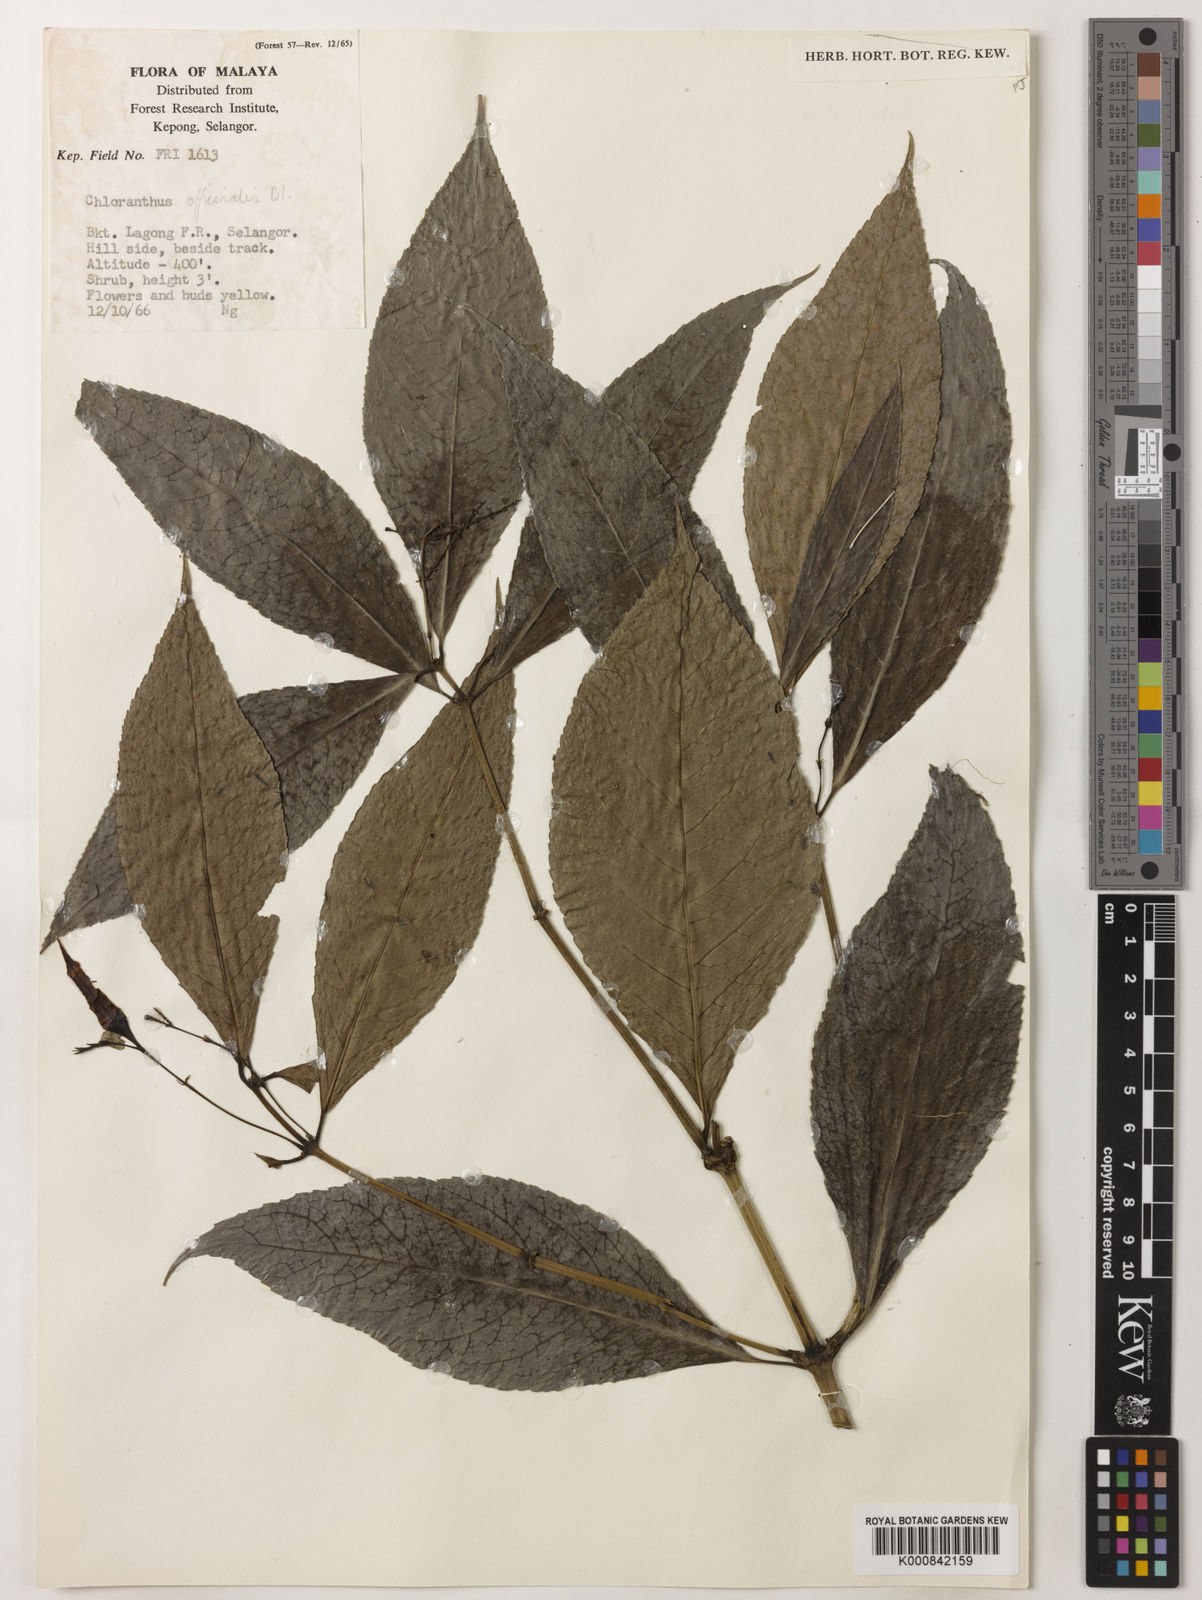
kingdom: Plantae
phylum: Tracheophyta
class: Magnoliopsida
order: Chloranthales
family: Chloranthaceae
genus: Chloranthus
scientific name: Chloranthus
